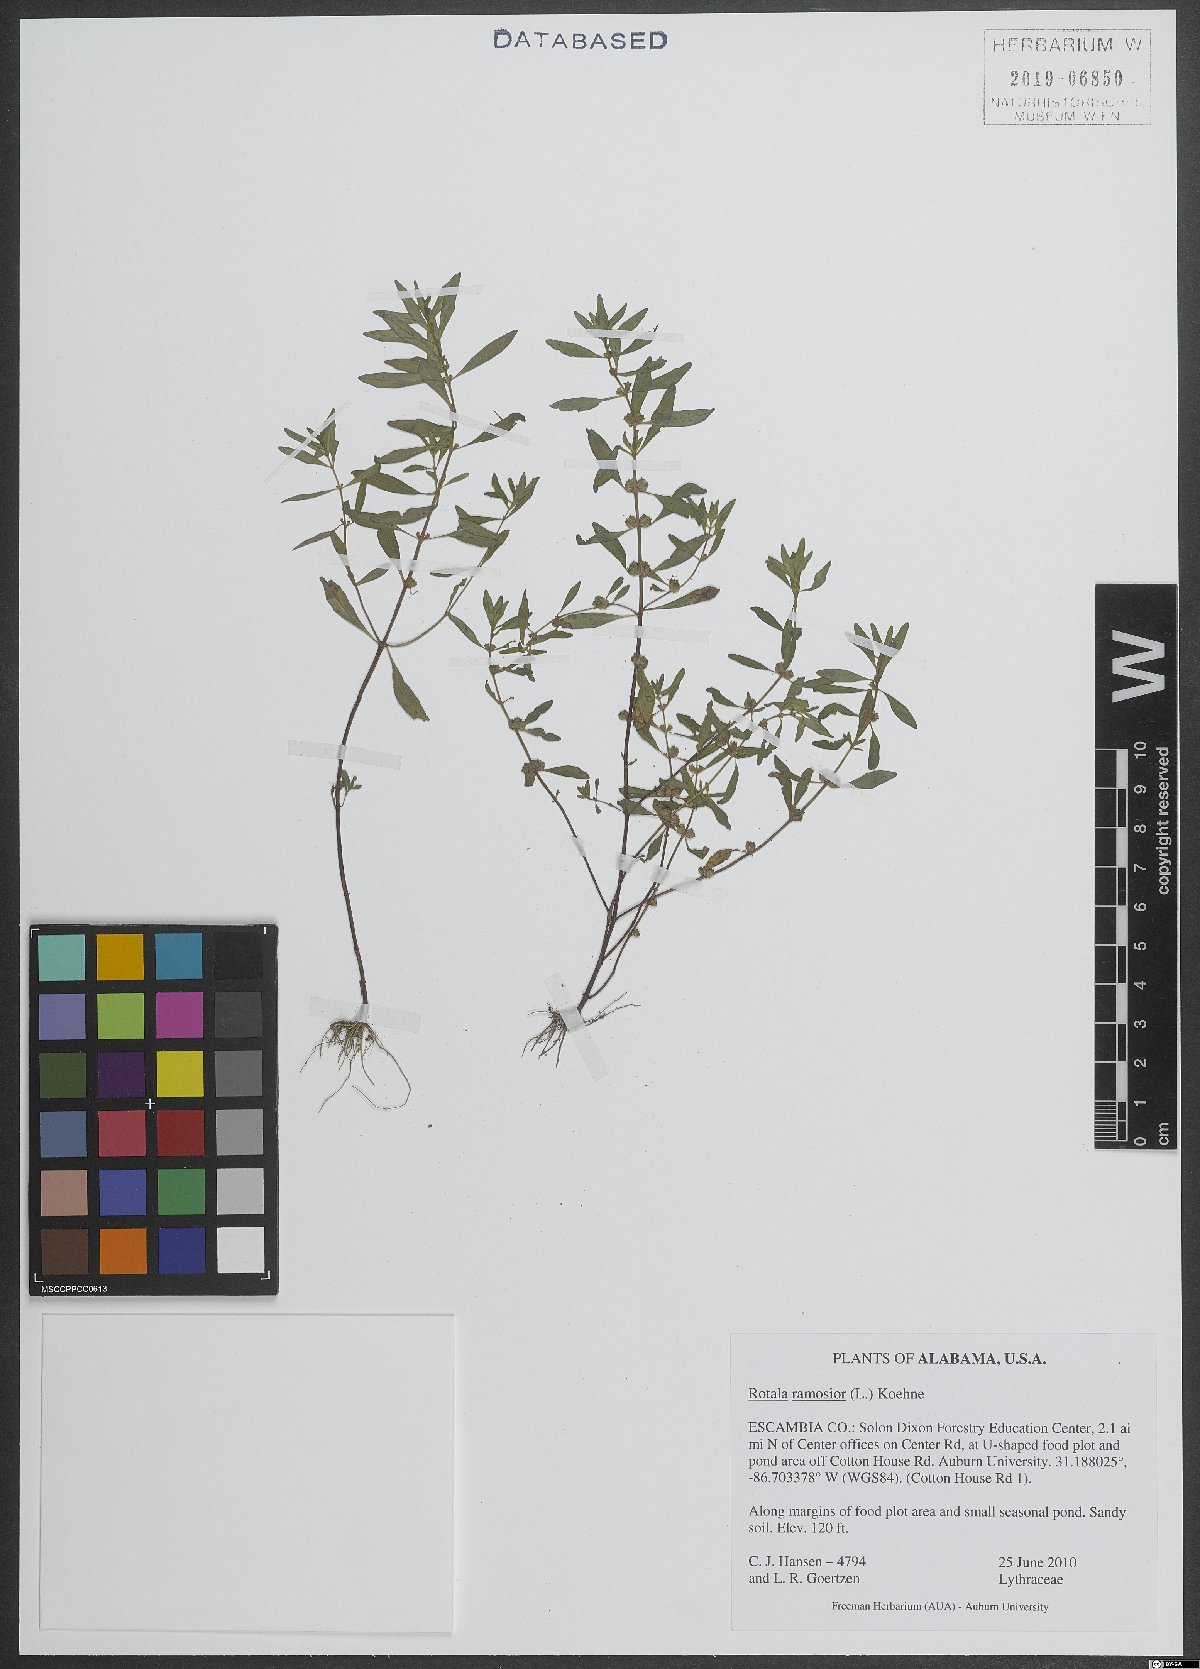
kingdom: Plantae
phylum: Tracheophyta
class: Magnoliopsida
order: Myrtales
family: Lythraceae
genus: Rotala
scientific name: Rotala ramosior
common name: Lowland rotala
